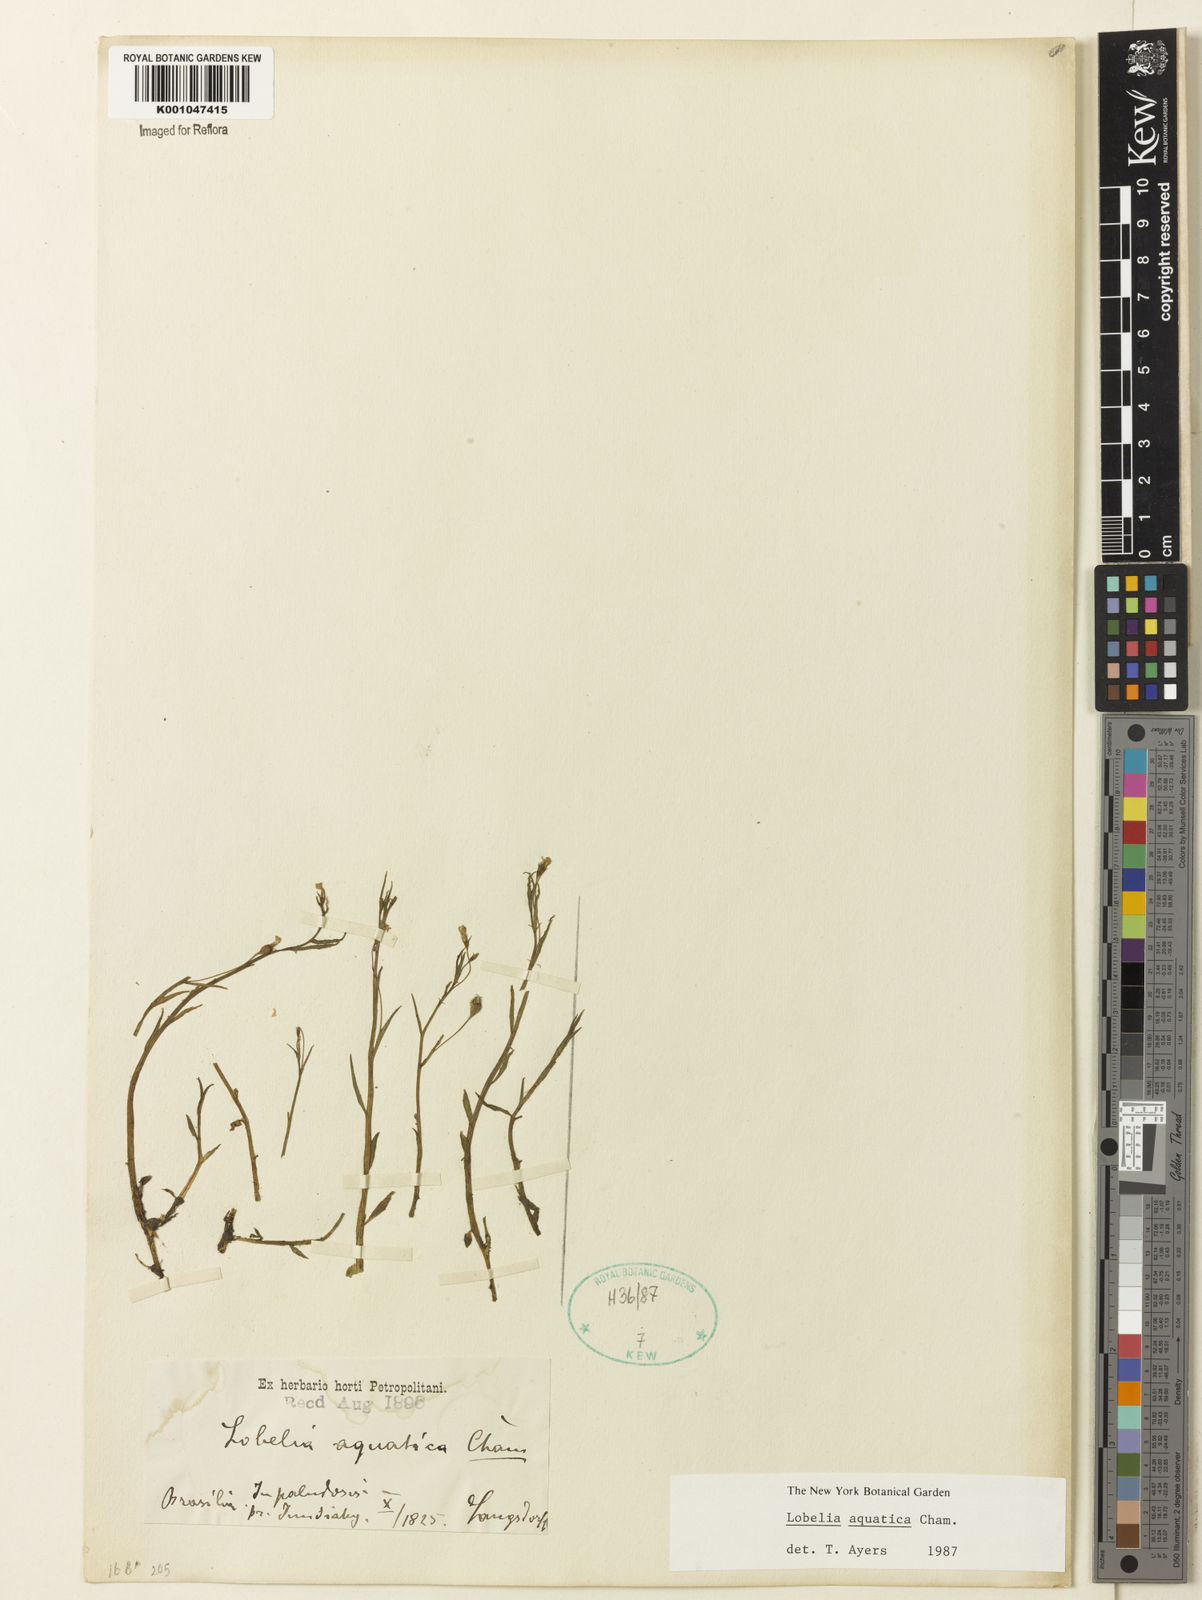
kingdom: Plantae
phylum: Tracheophyta
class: Magnoliopsida
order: Asterales
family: Campanulaceae
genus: Lobelia
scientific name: Lobelia aquatica
